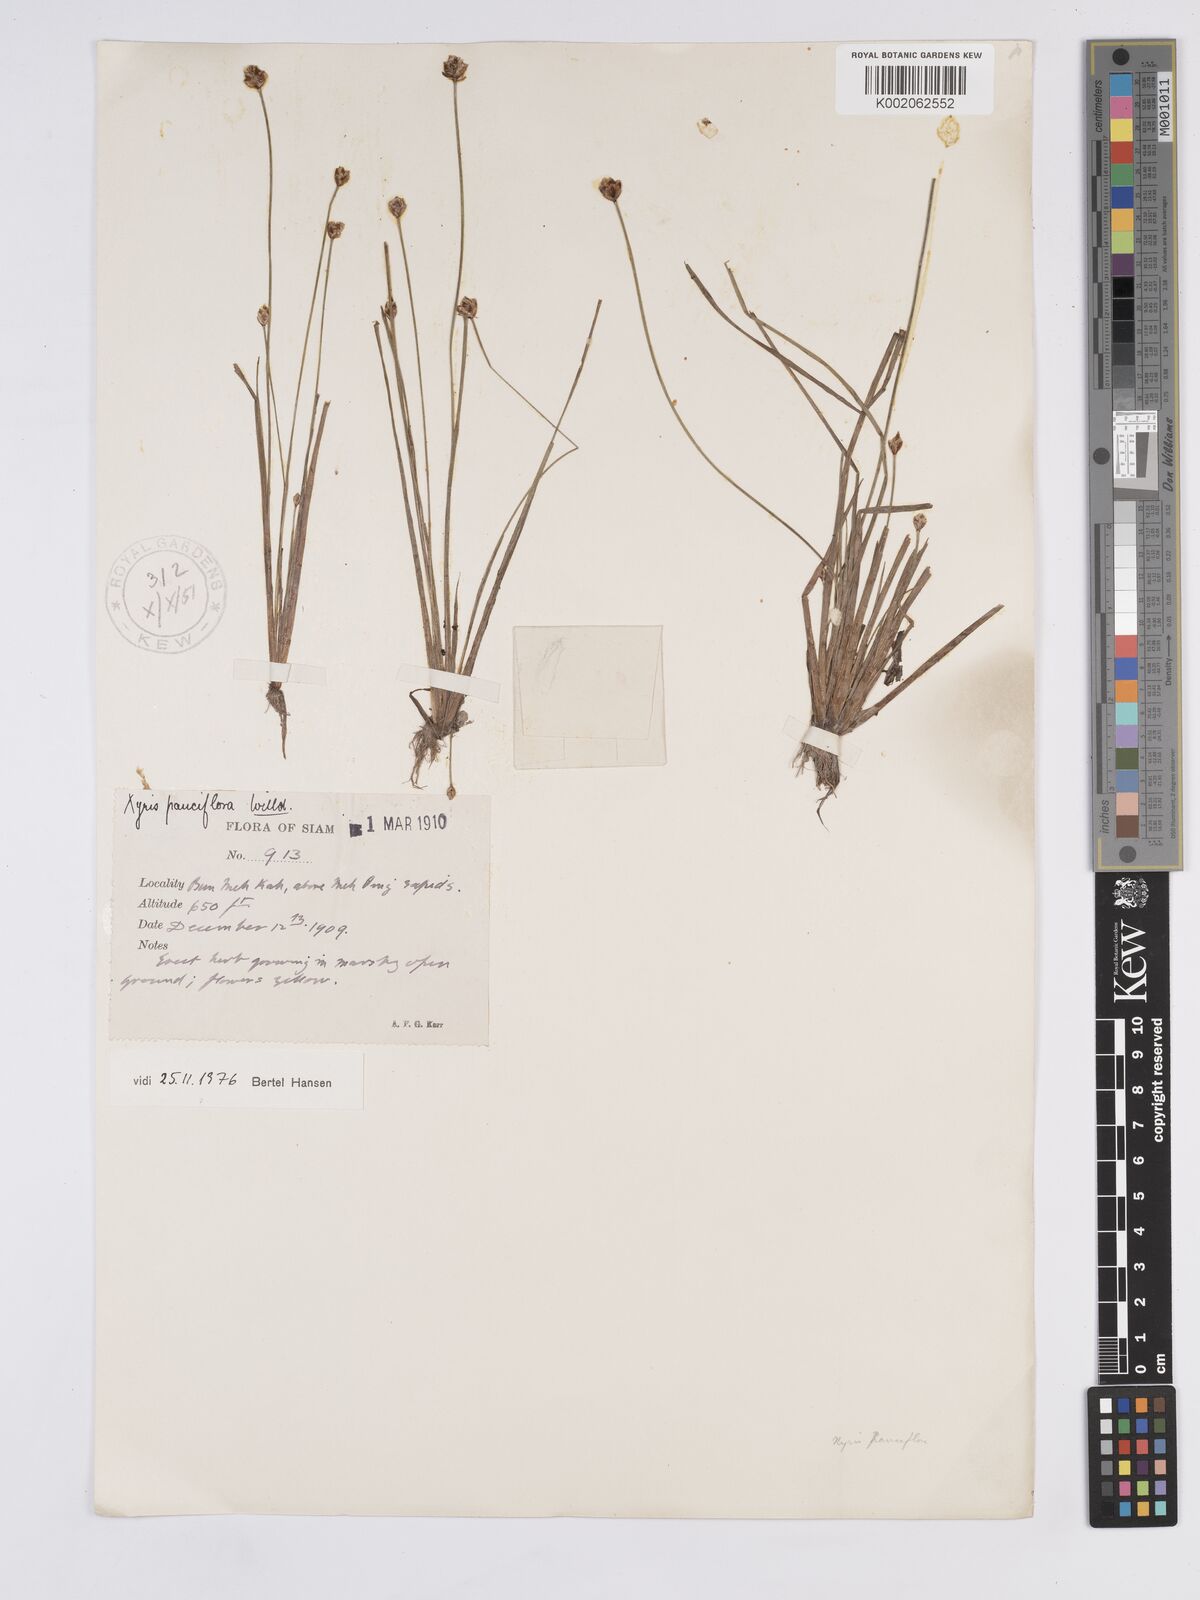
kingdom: Plantae
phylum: Tracheophyta
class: Liliopsida
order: Poales
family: Xyridaceae
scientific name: Xyridaceae
